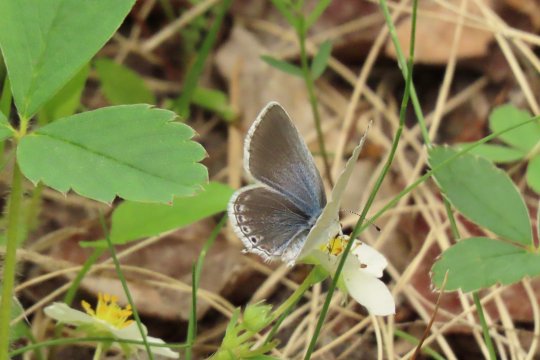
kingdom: Animalia
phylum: Arthropoda
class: Insecta
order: Lepidoptera
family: Lycaenidae
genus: Elkalyce
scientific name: Elkalyce amyntula
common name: Western Tailed-Blue
